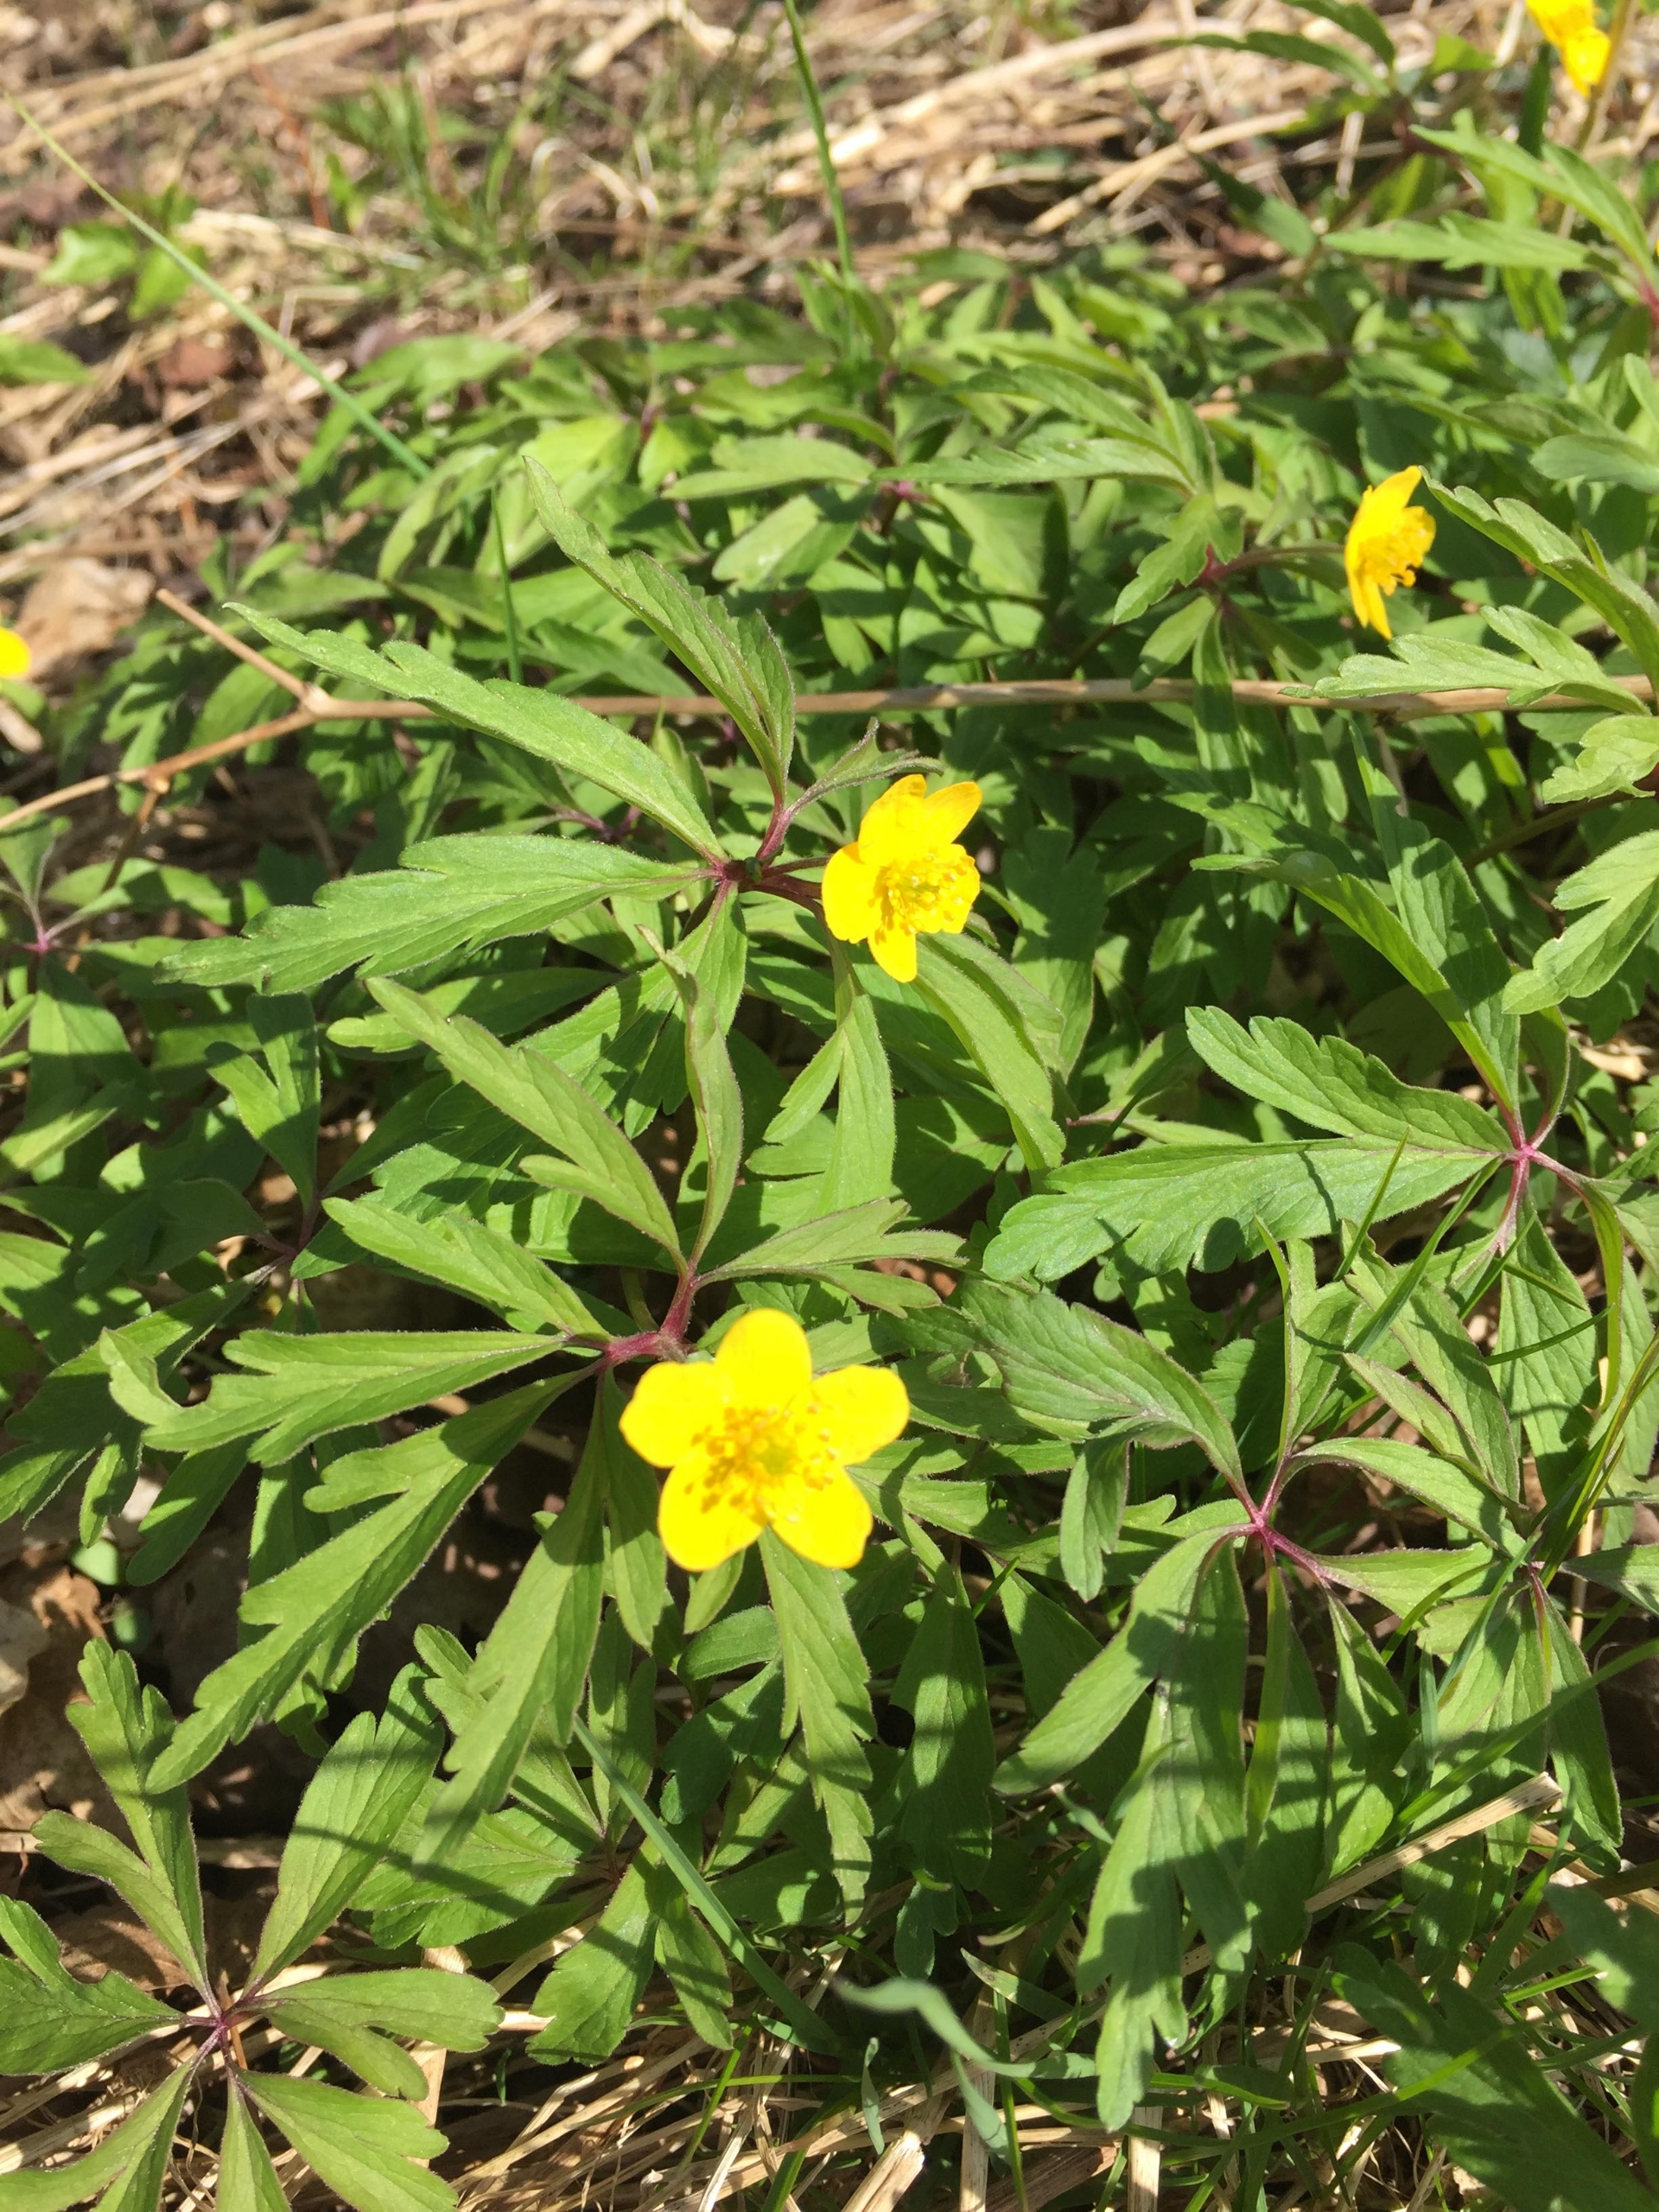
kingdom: Plantae
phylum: Tracheophyta
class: Magnoliopsida
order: Ranunculales
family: Ranunculaceae
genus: Anemone
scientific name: Anemone ranunculoides
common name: Gul anemone
